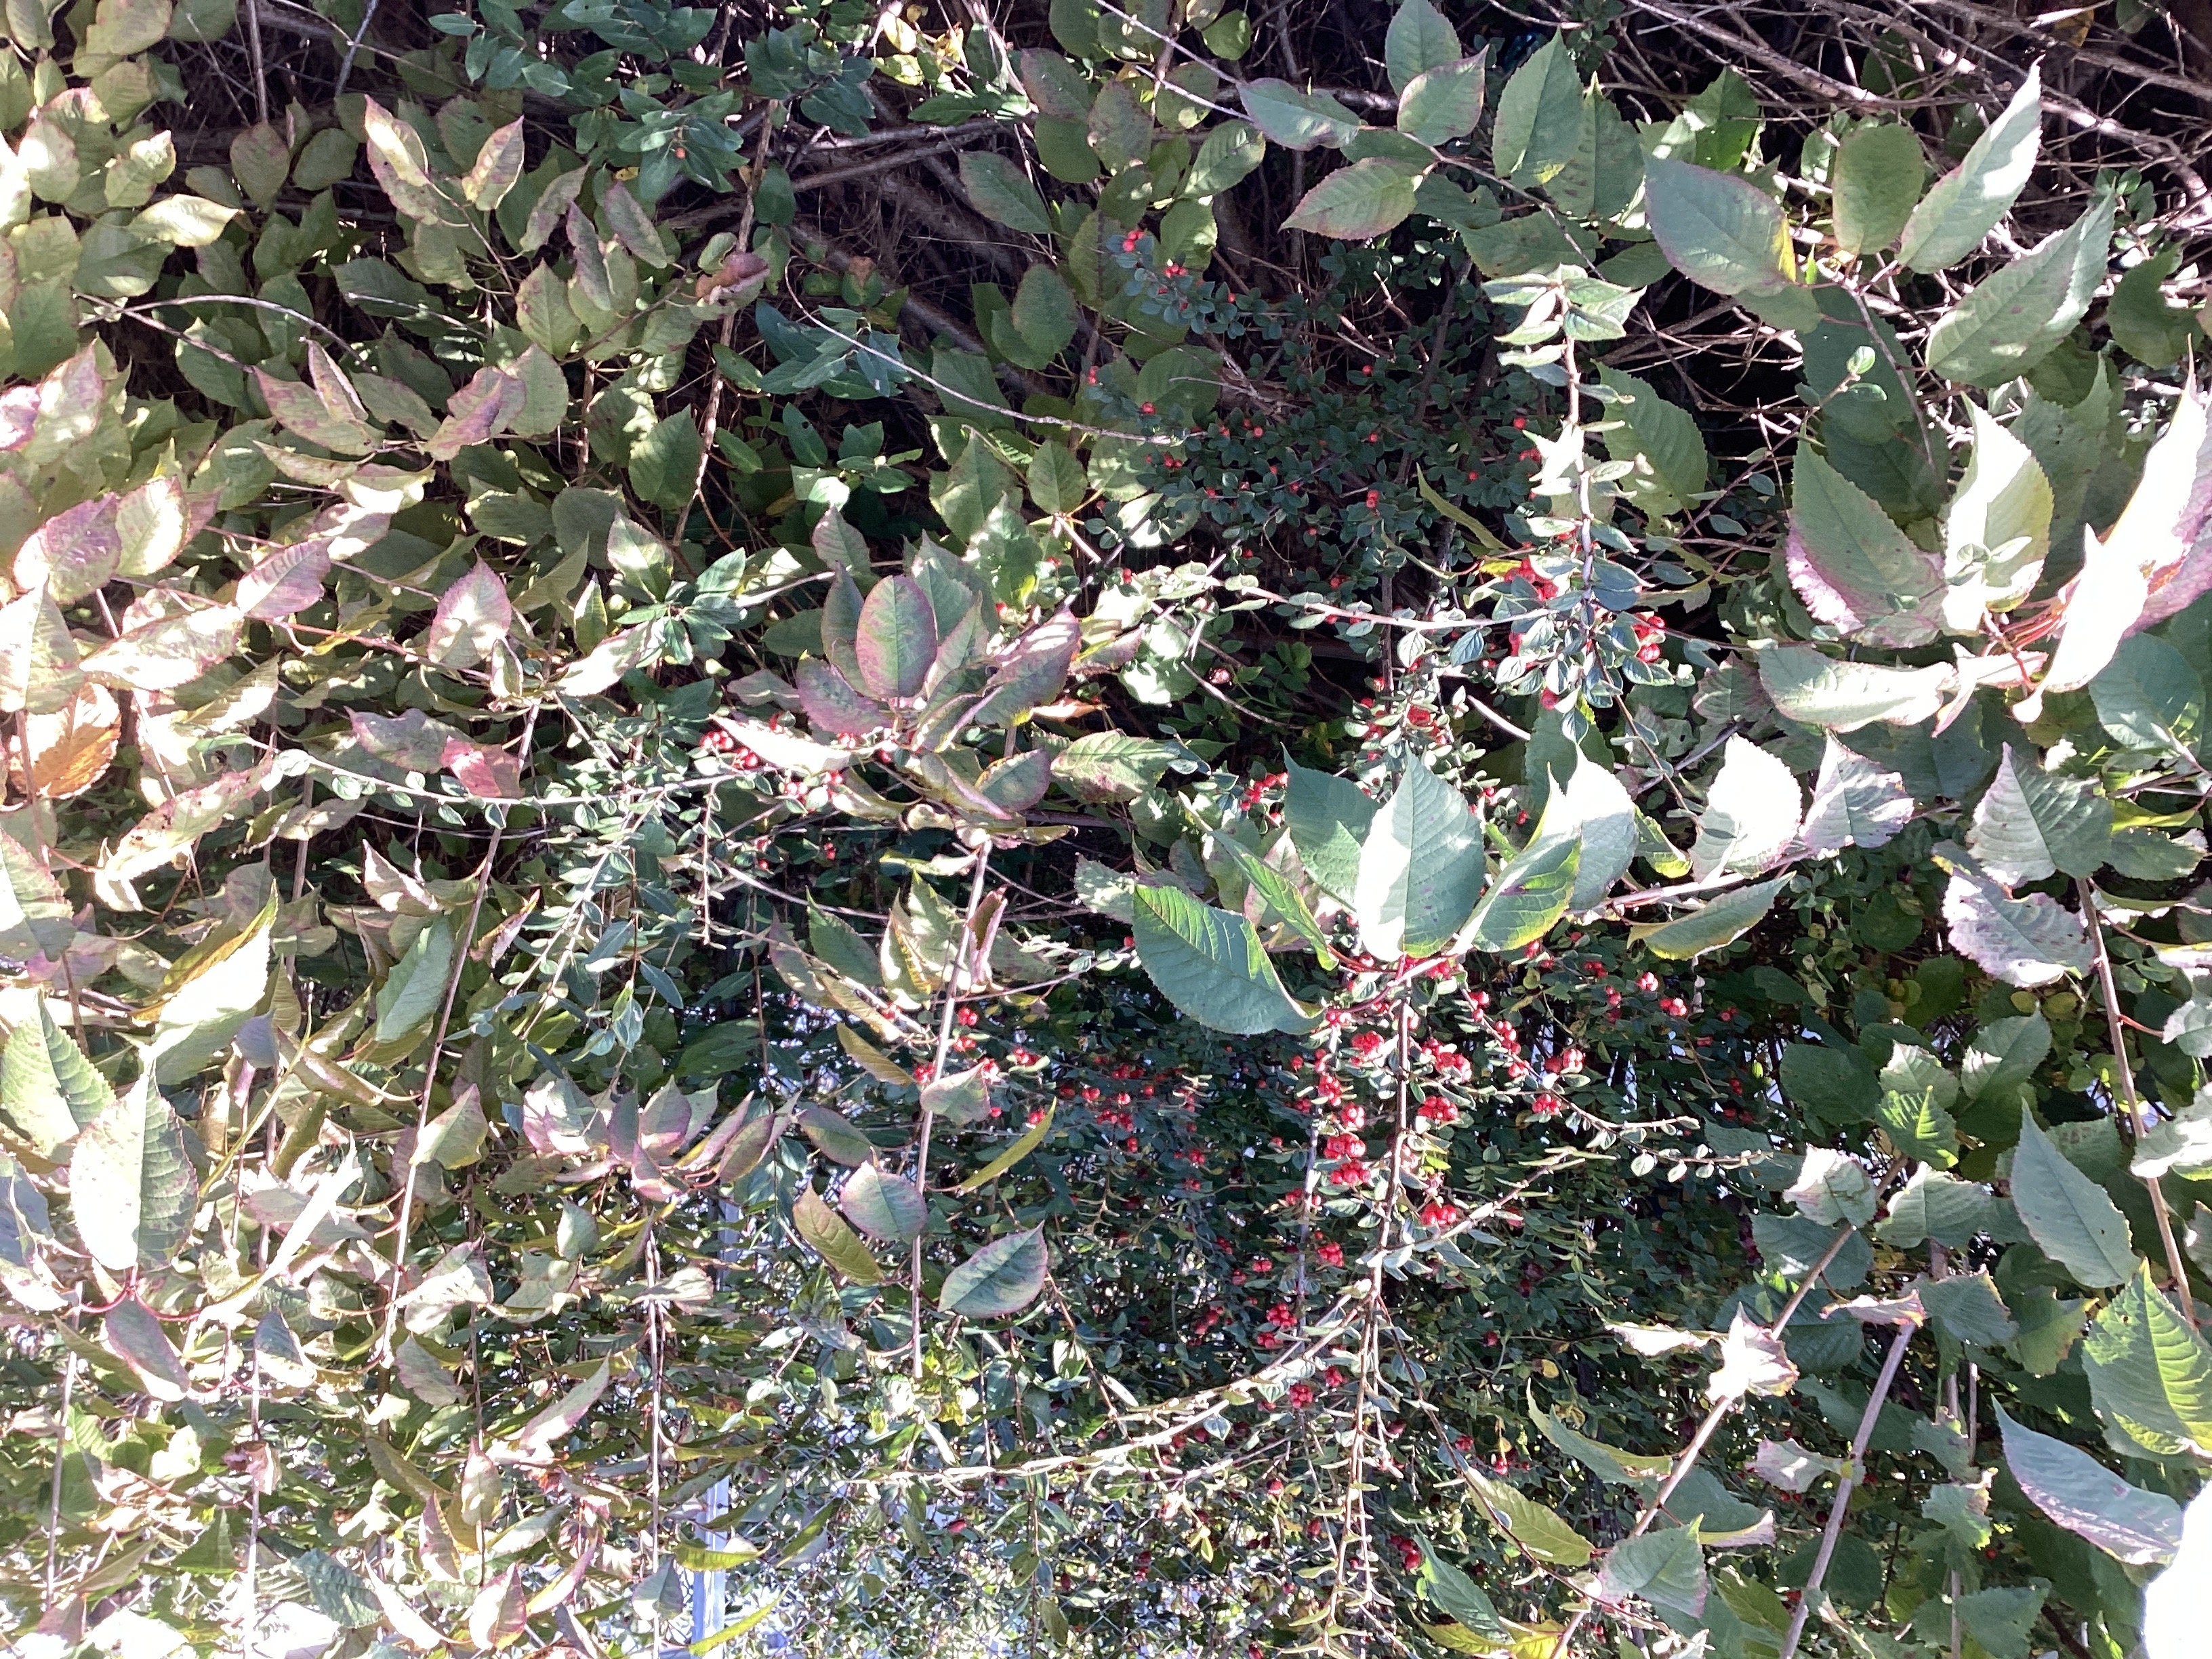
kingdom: Plantae
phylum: Tracheophyta
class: Magnoliopsida
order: Rosales
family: Rosaceae
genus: Cotoneaster
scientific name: Cotoneaster dielsianus
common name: dielsmispel
